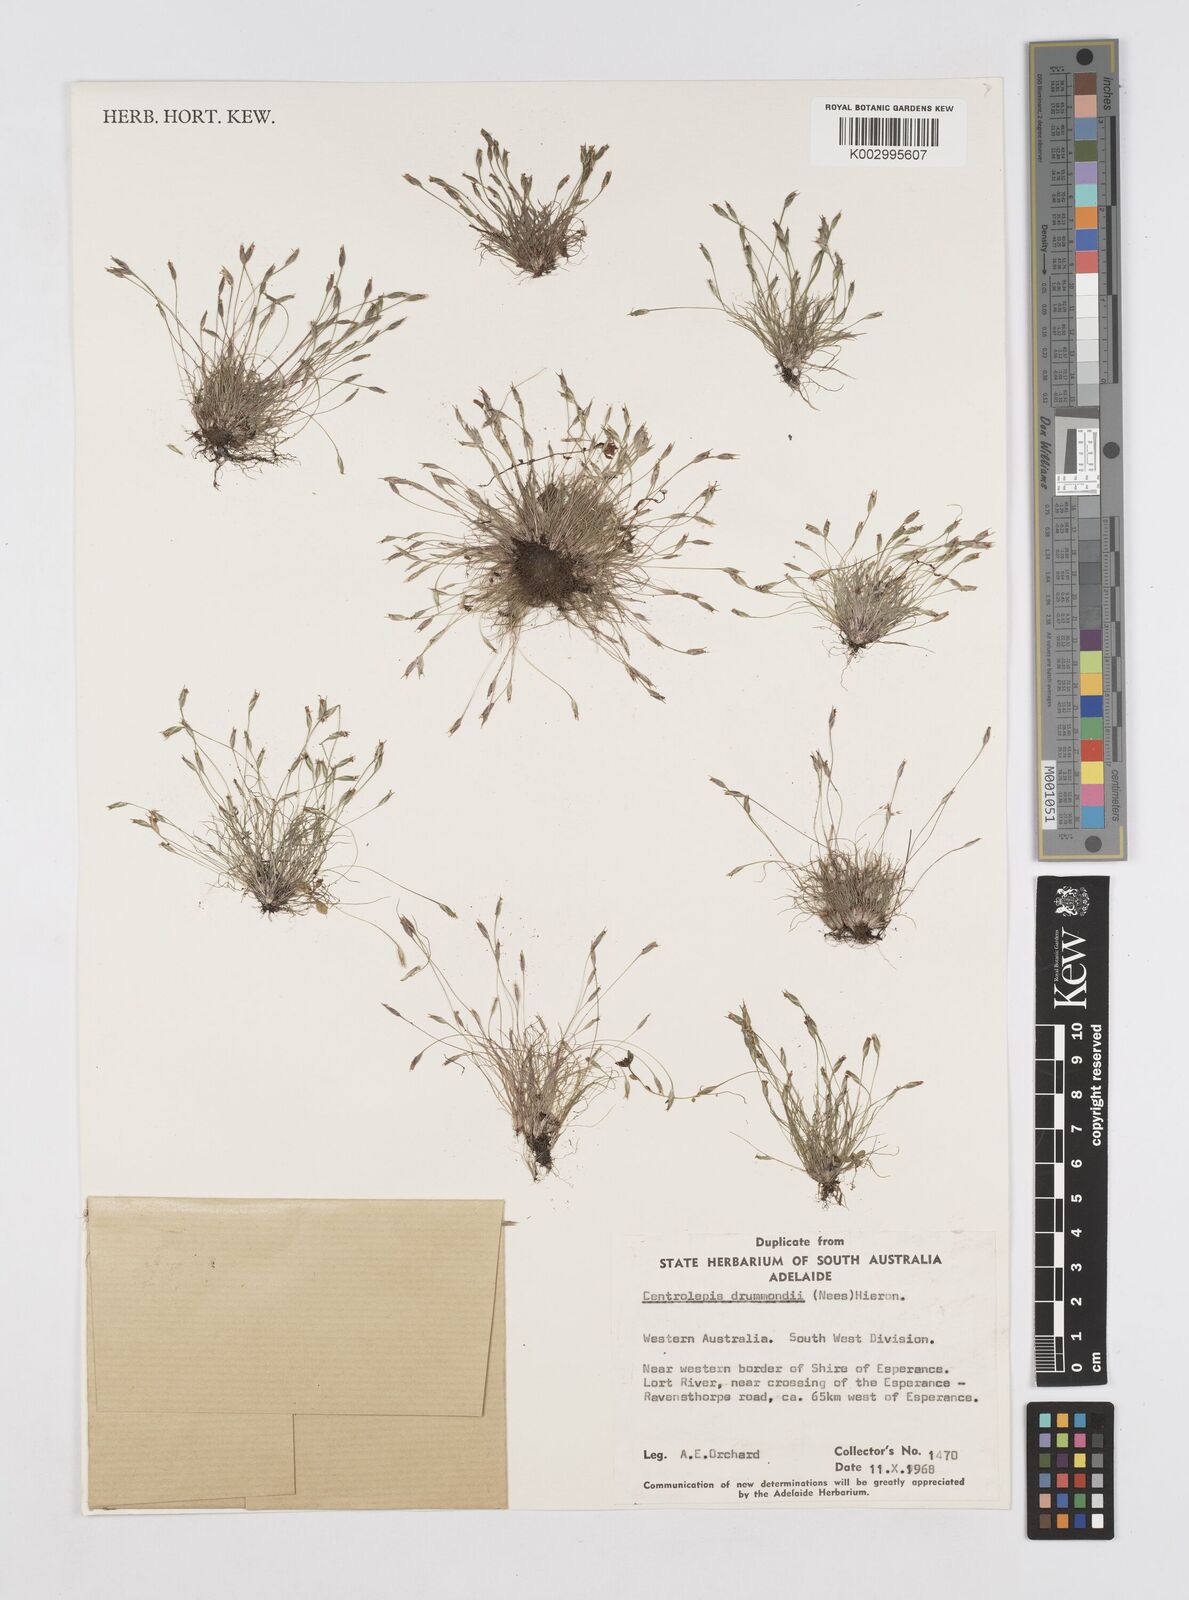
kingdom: Plantae
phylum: Tracheophyta
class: Liliopsida
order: Poales
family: Restionaceae
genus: Centrolepis
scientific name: Centrolepis drummondiana
